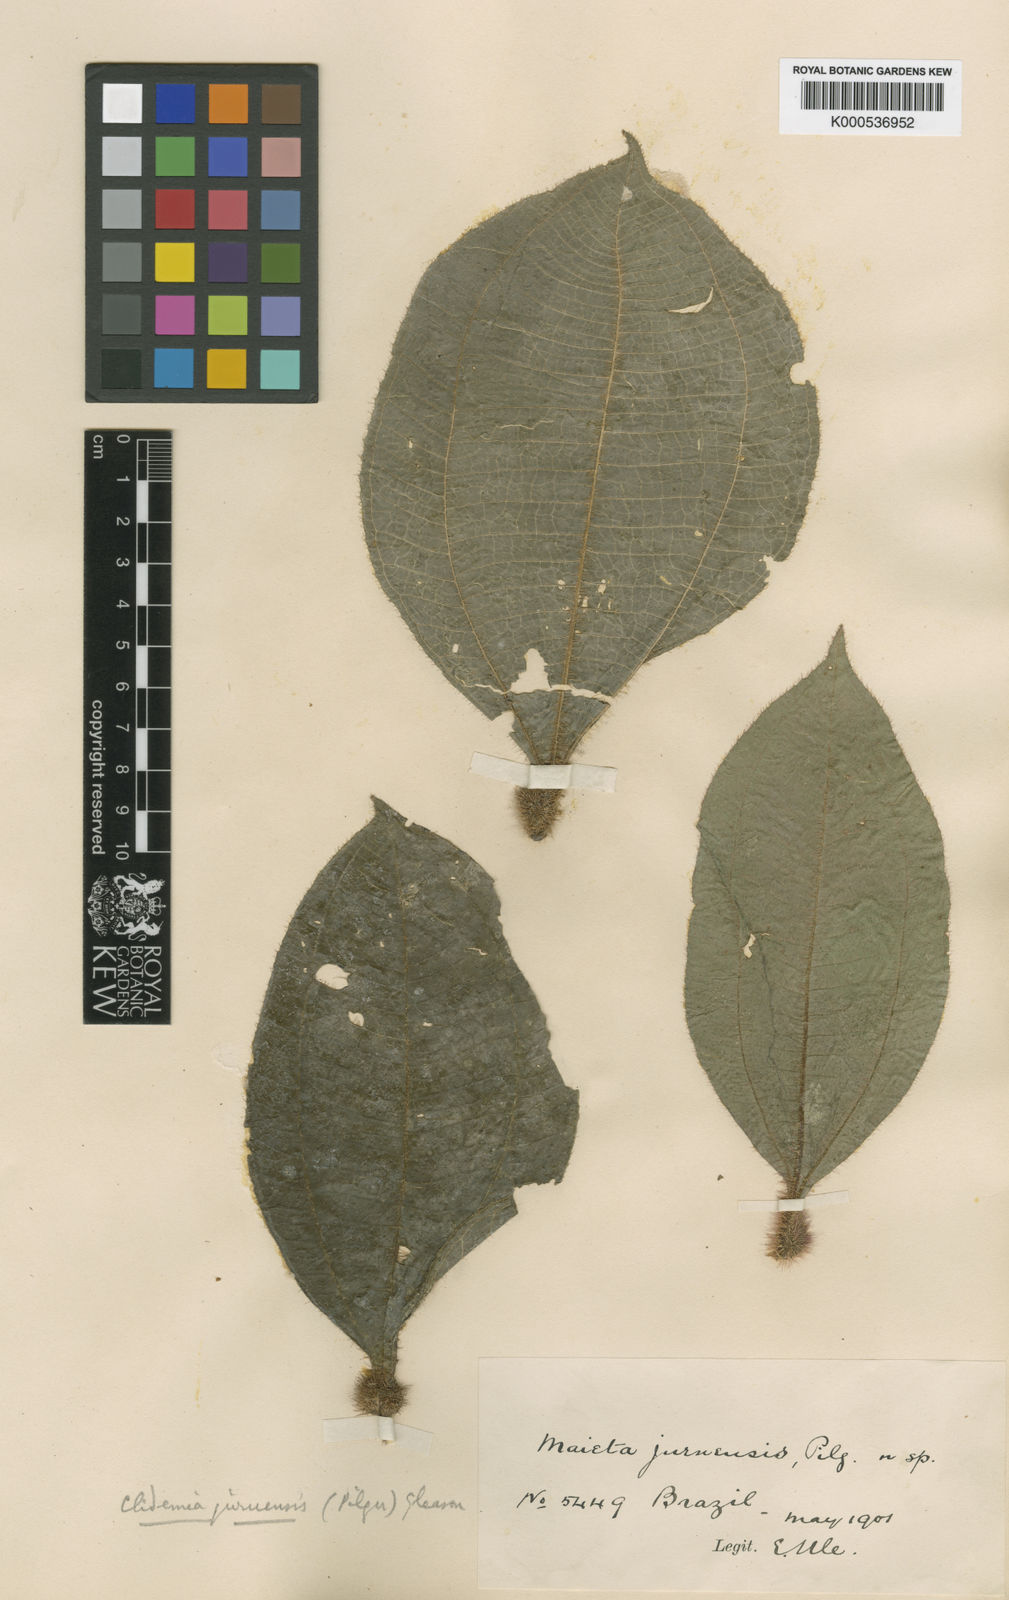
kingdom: Plantae
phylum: Tracheophyta
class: Magnoliopsida
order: Myrtales
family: Melastomataceae
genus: Miconia
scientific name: Miconia formicojuruensis
